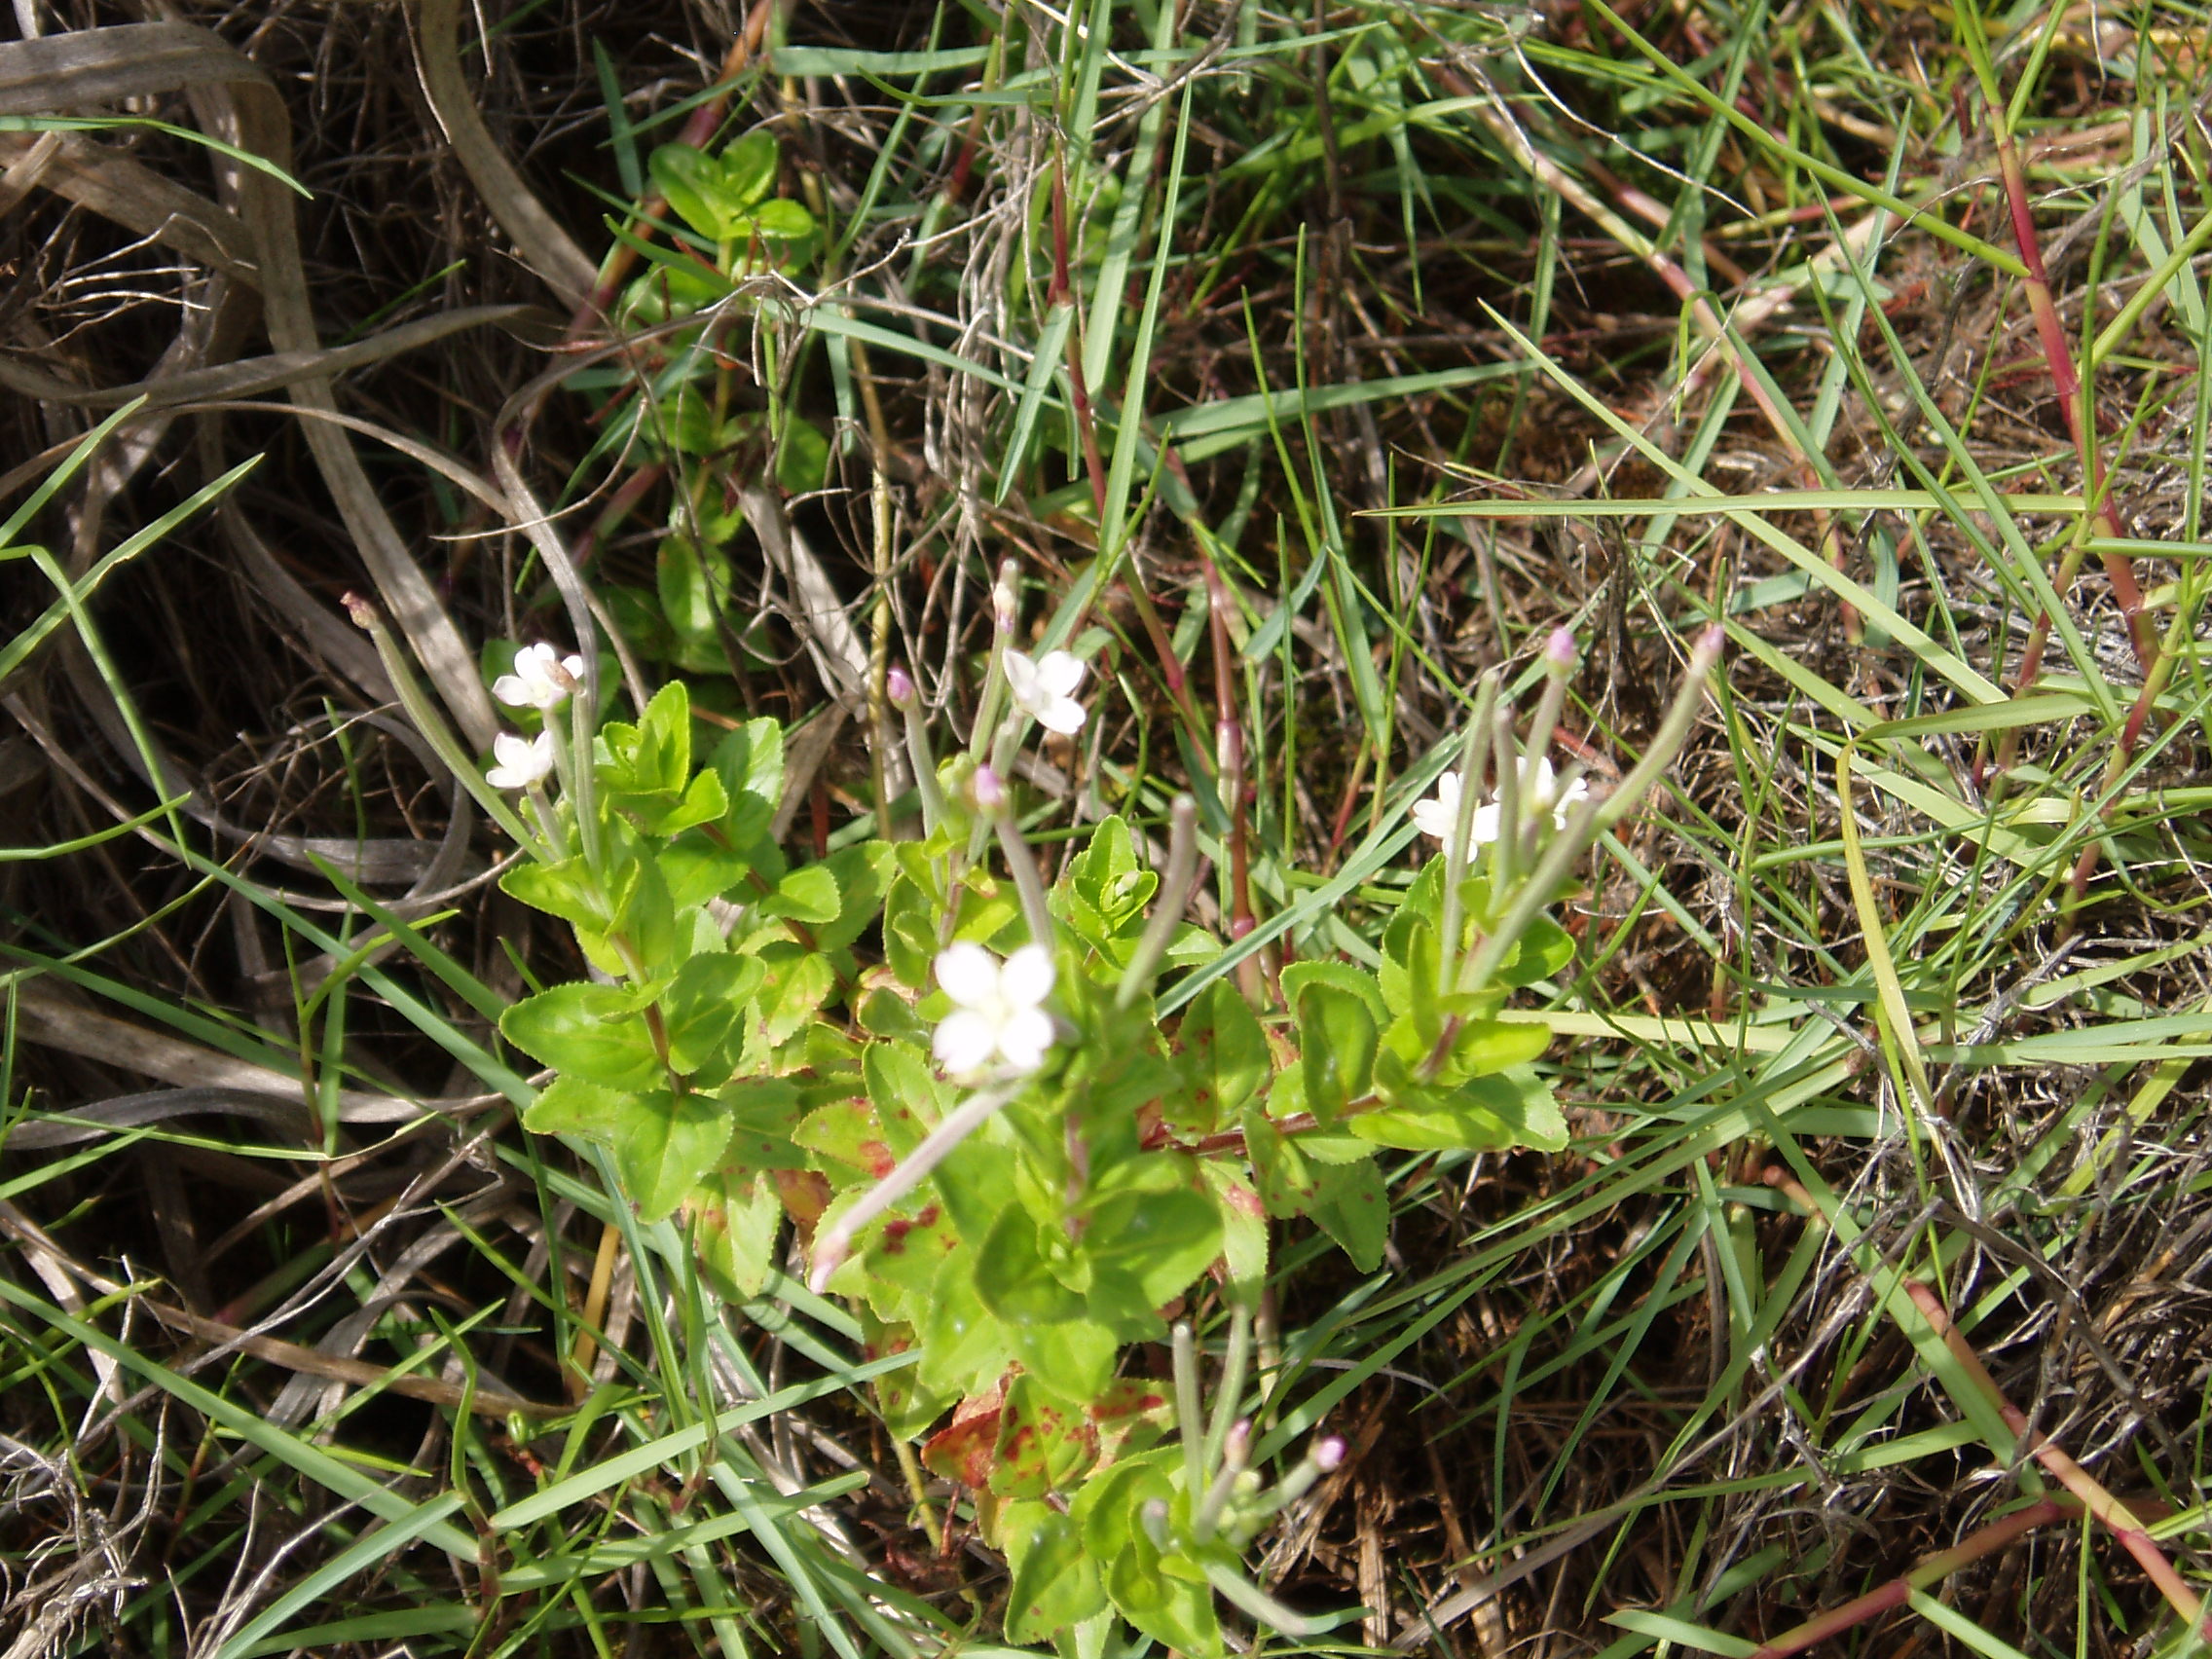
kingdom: Plantae
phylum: Tracheophyta
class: Magnoliopsida
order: Myrtales
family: Onagraceae
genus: Epilobium
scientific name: Epilobium billardierianum
